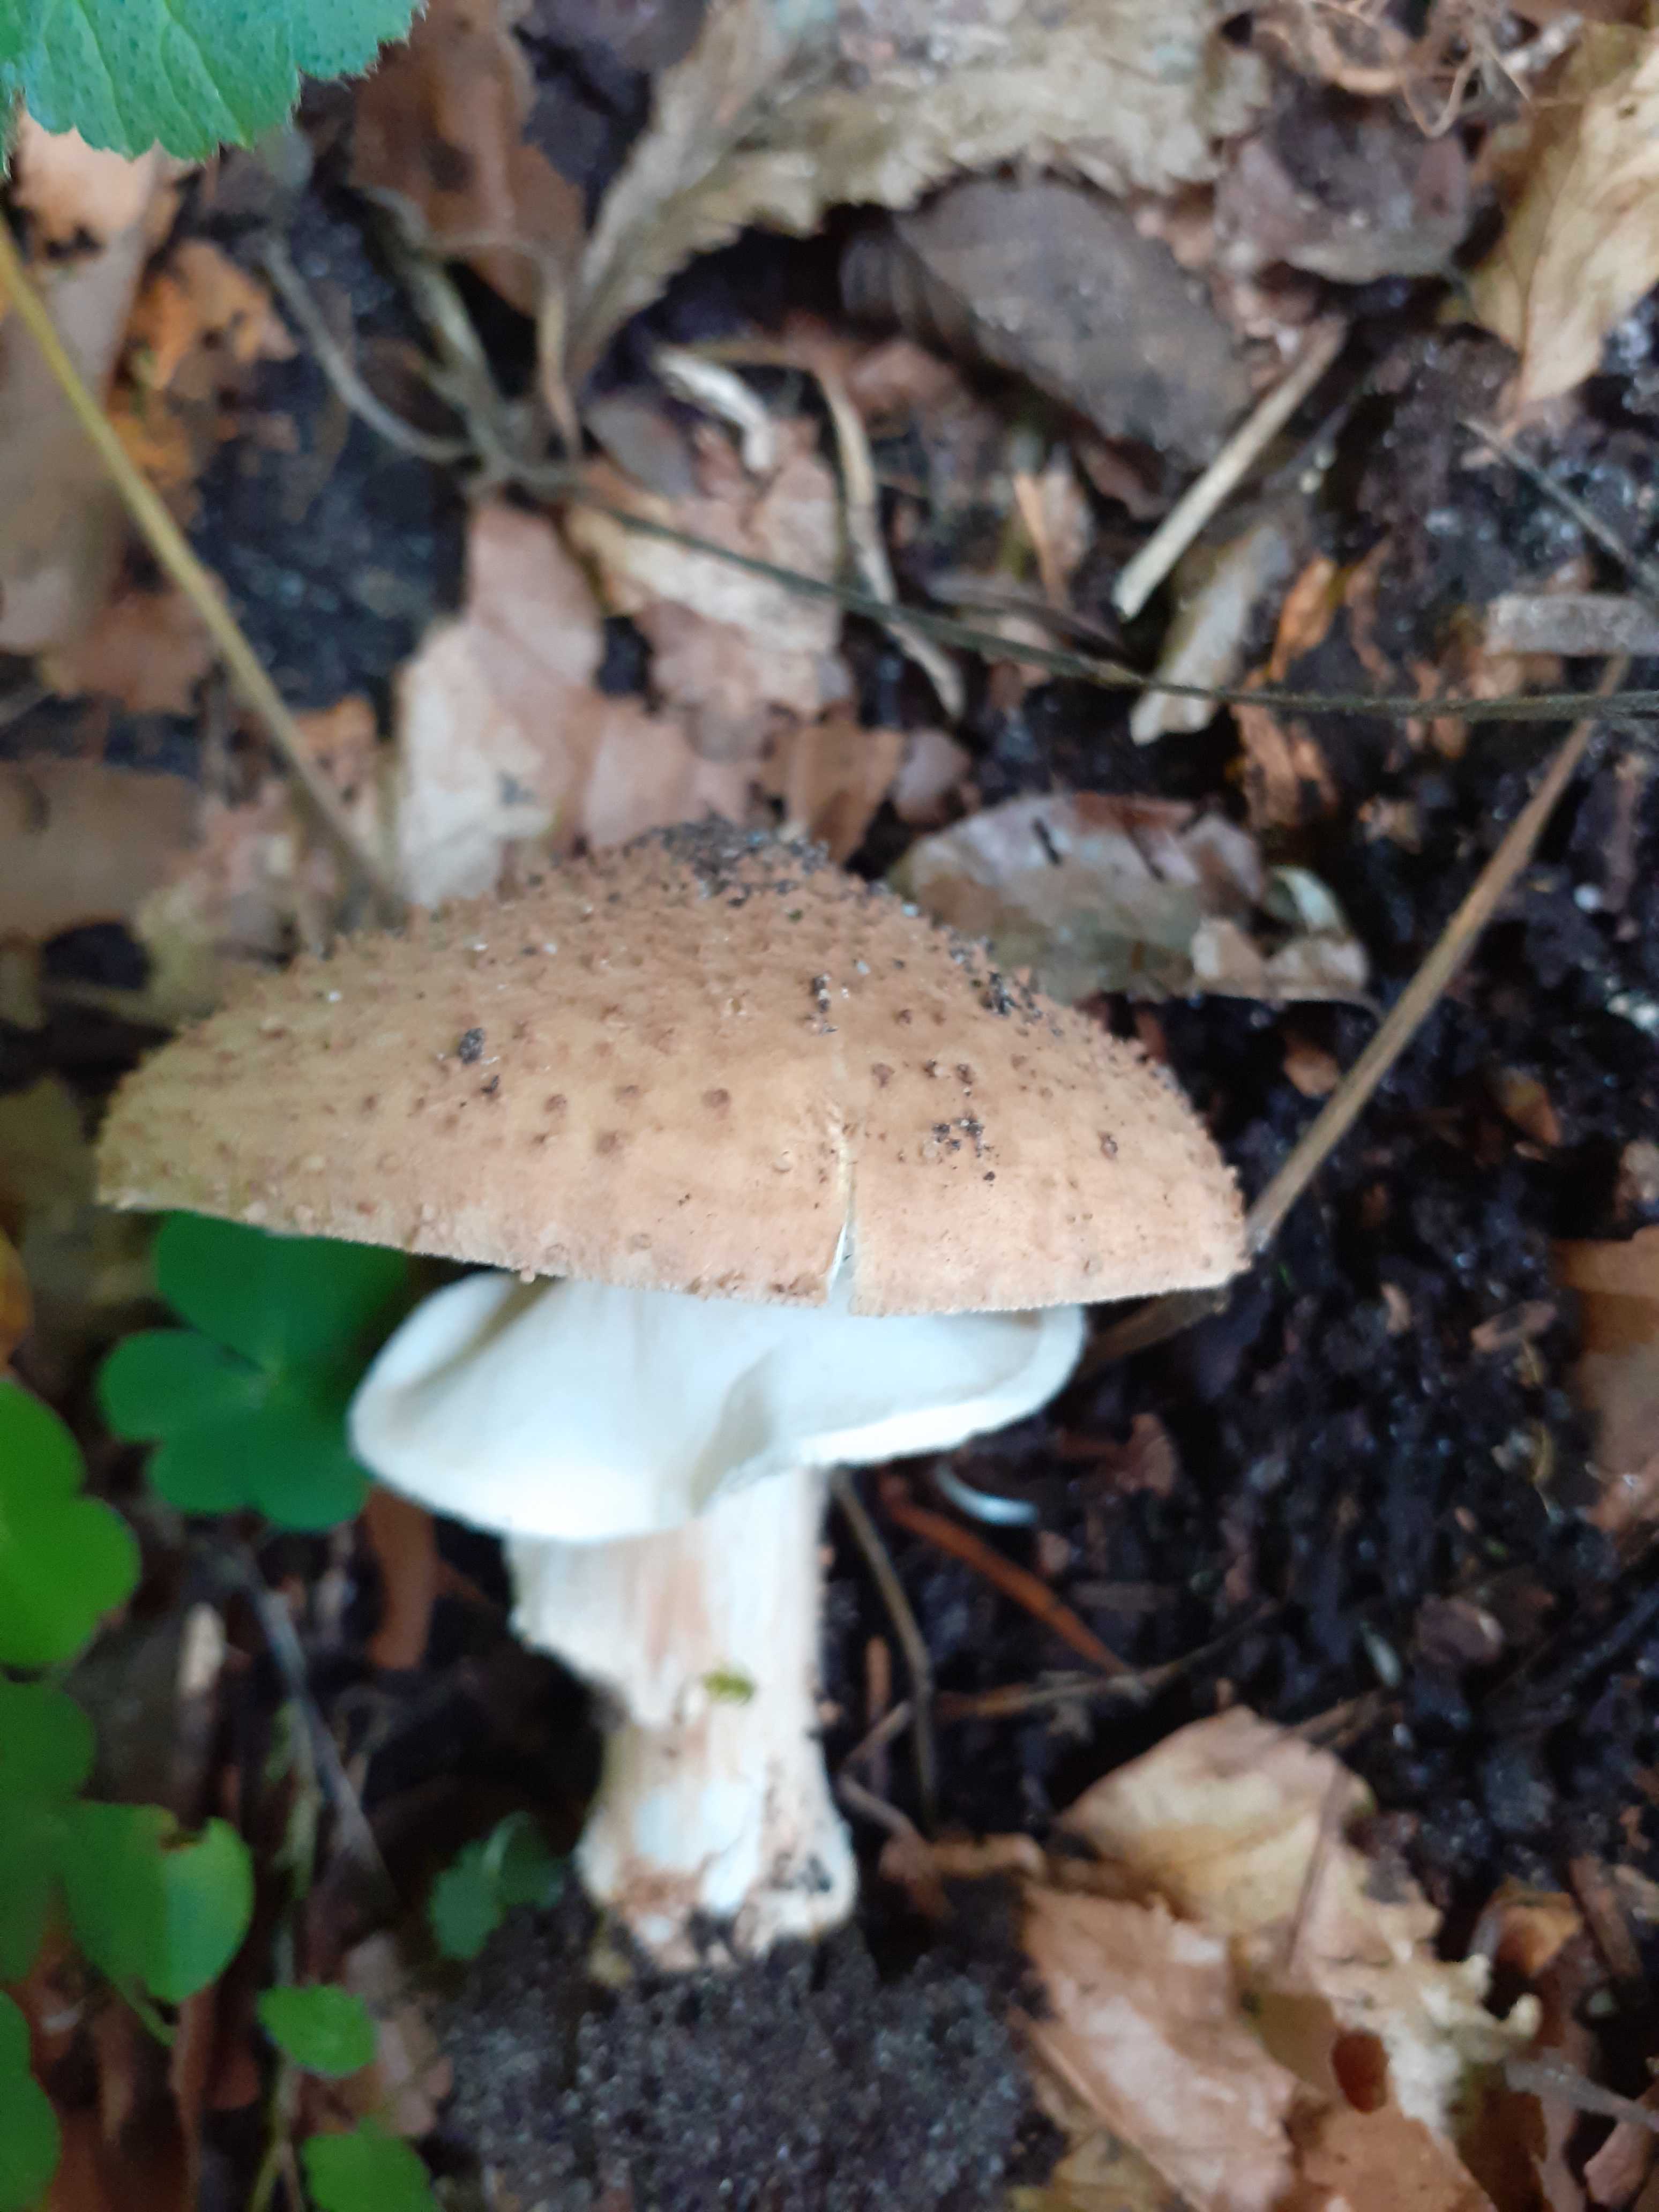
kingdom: Fungi
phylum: Basidiomycota
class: Agaricomycetes
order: Agaricales
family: Agaricaceae
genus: Echinoderma
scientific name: Echinoderma asperum
